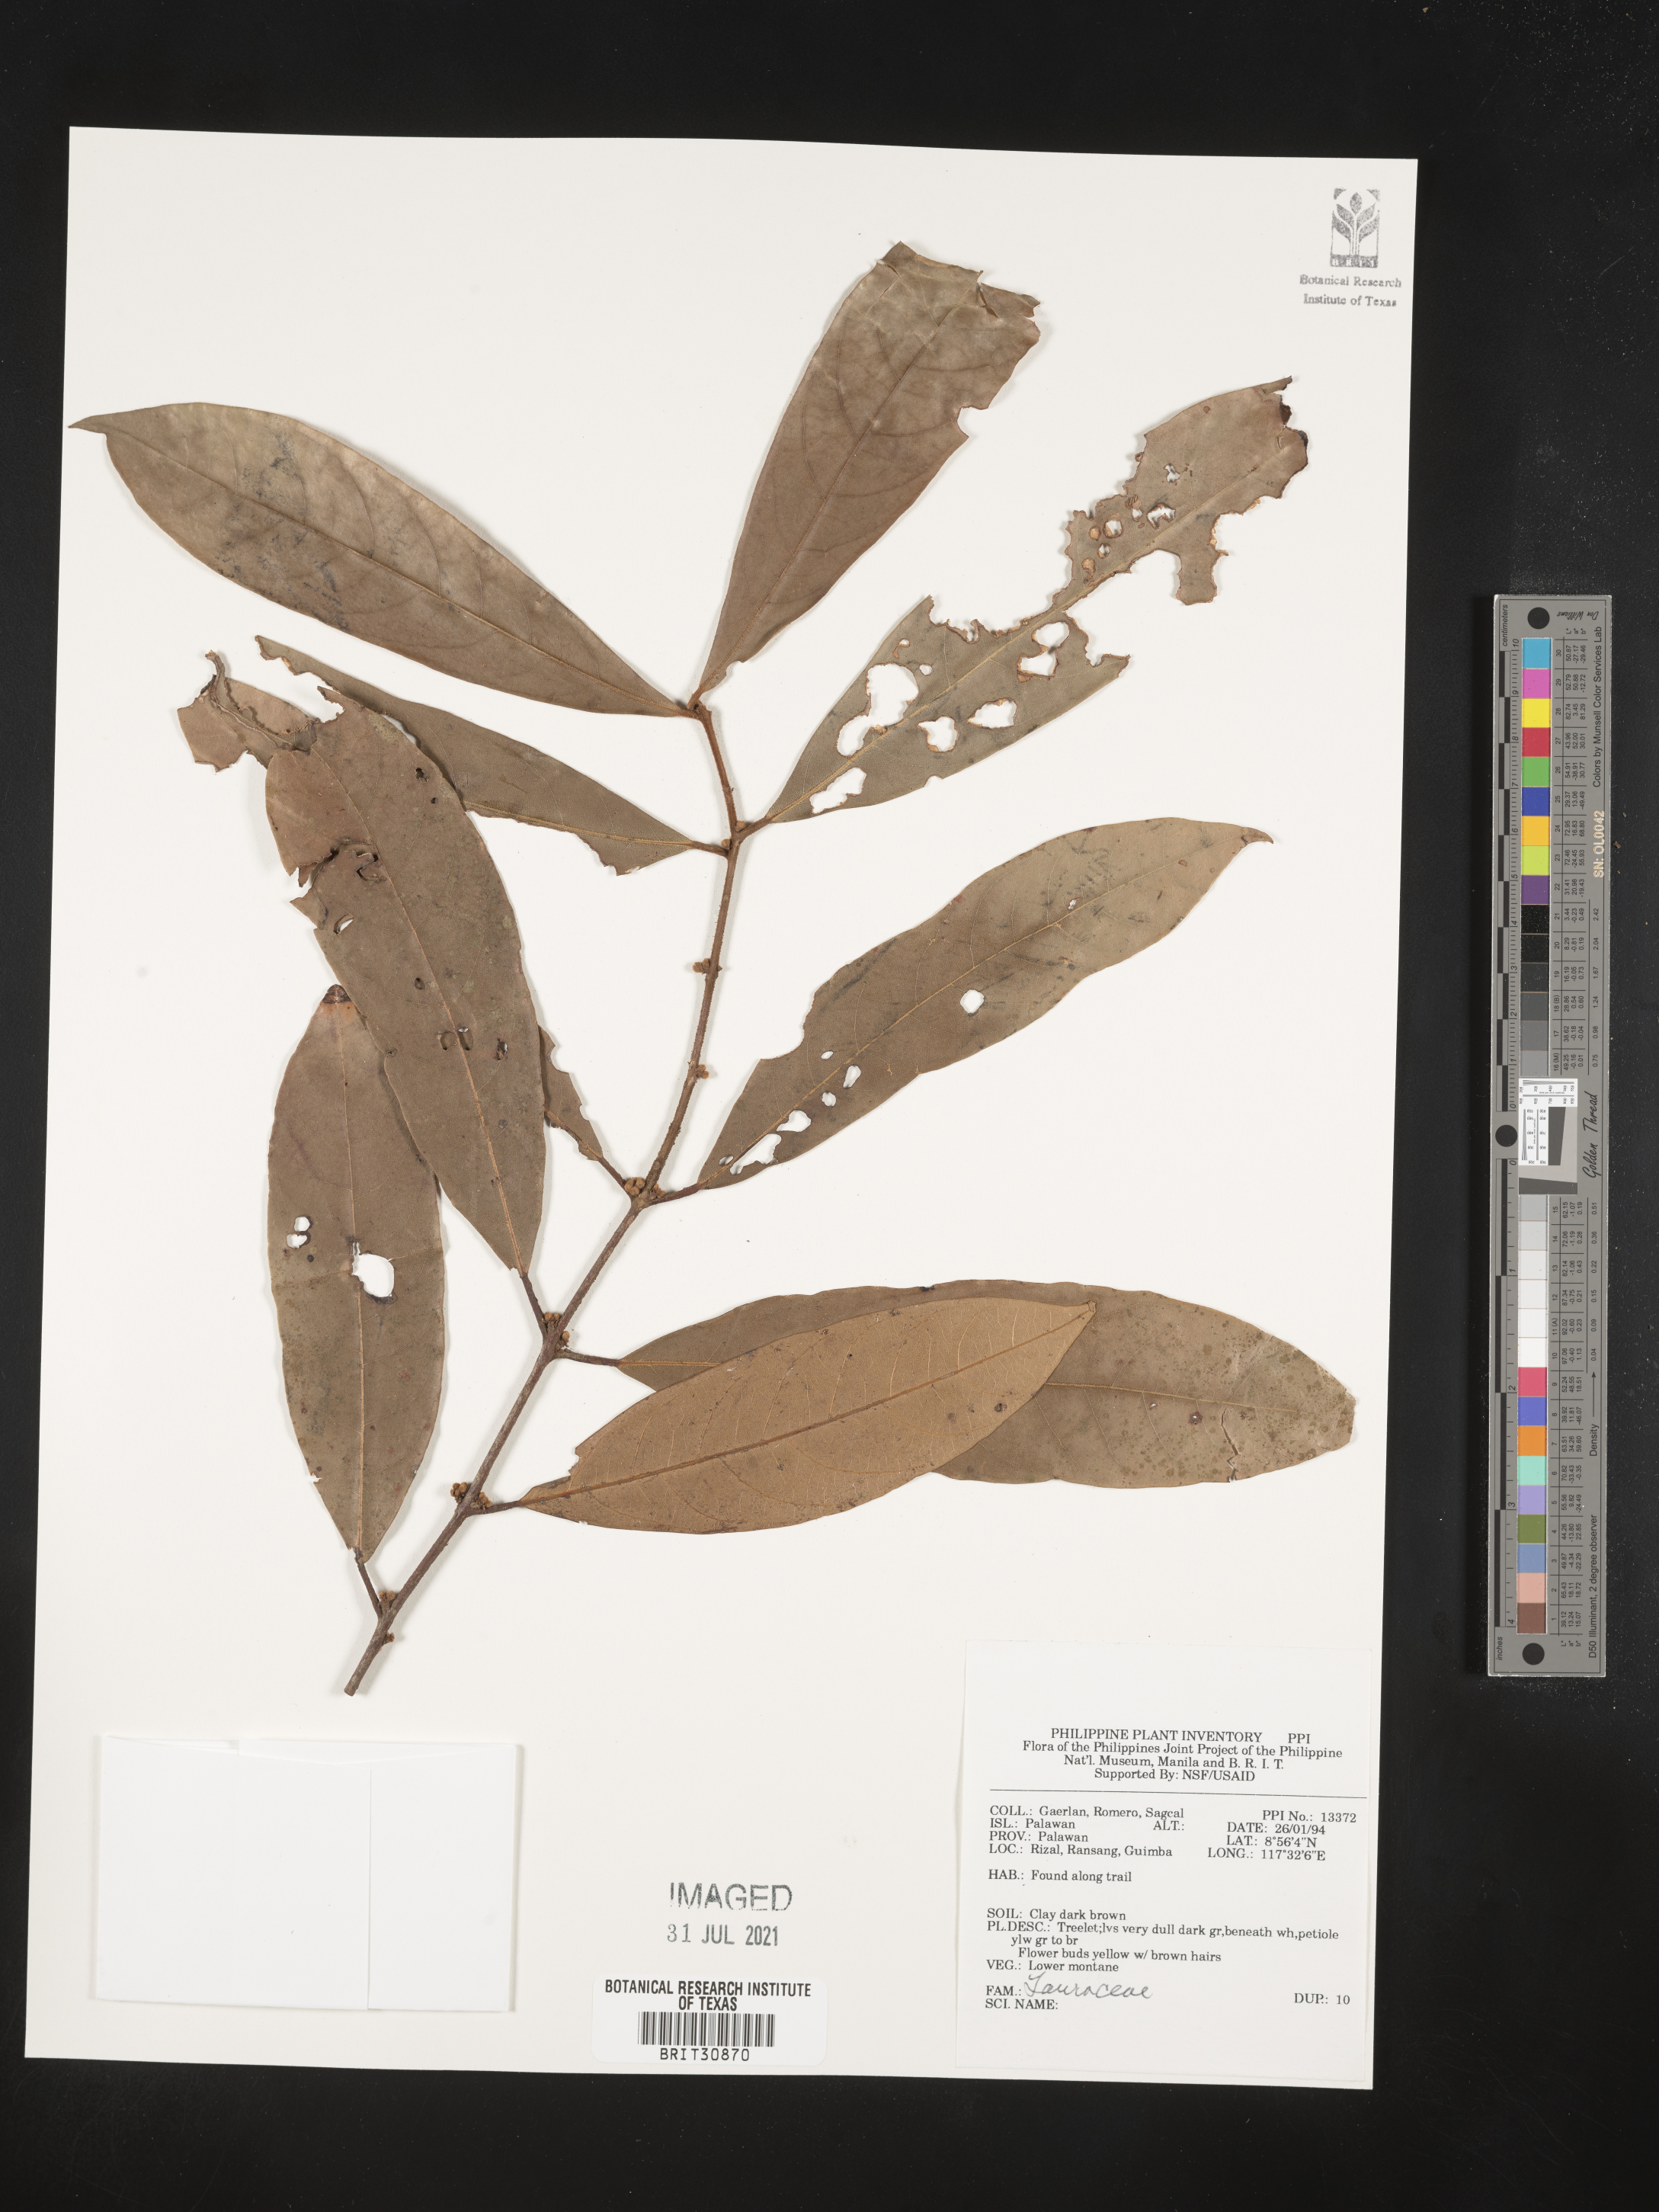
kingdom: Plantae
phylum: Tracheophyta
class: Magnoliopsida
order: Laurales
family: Lauraceae
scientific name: Lauraceae
